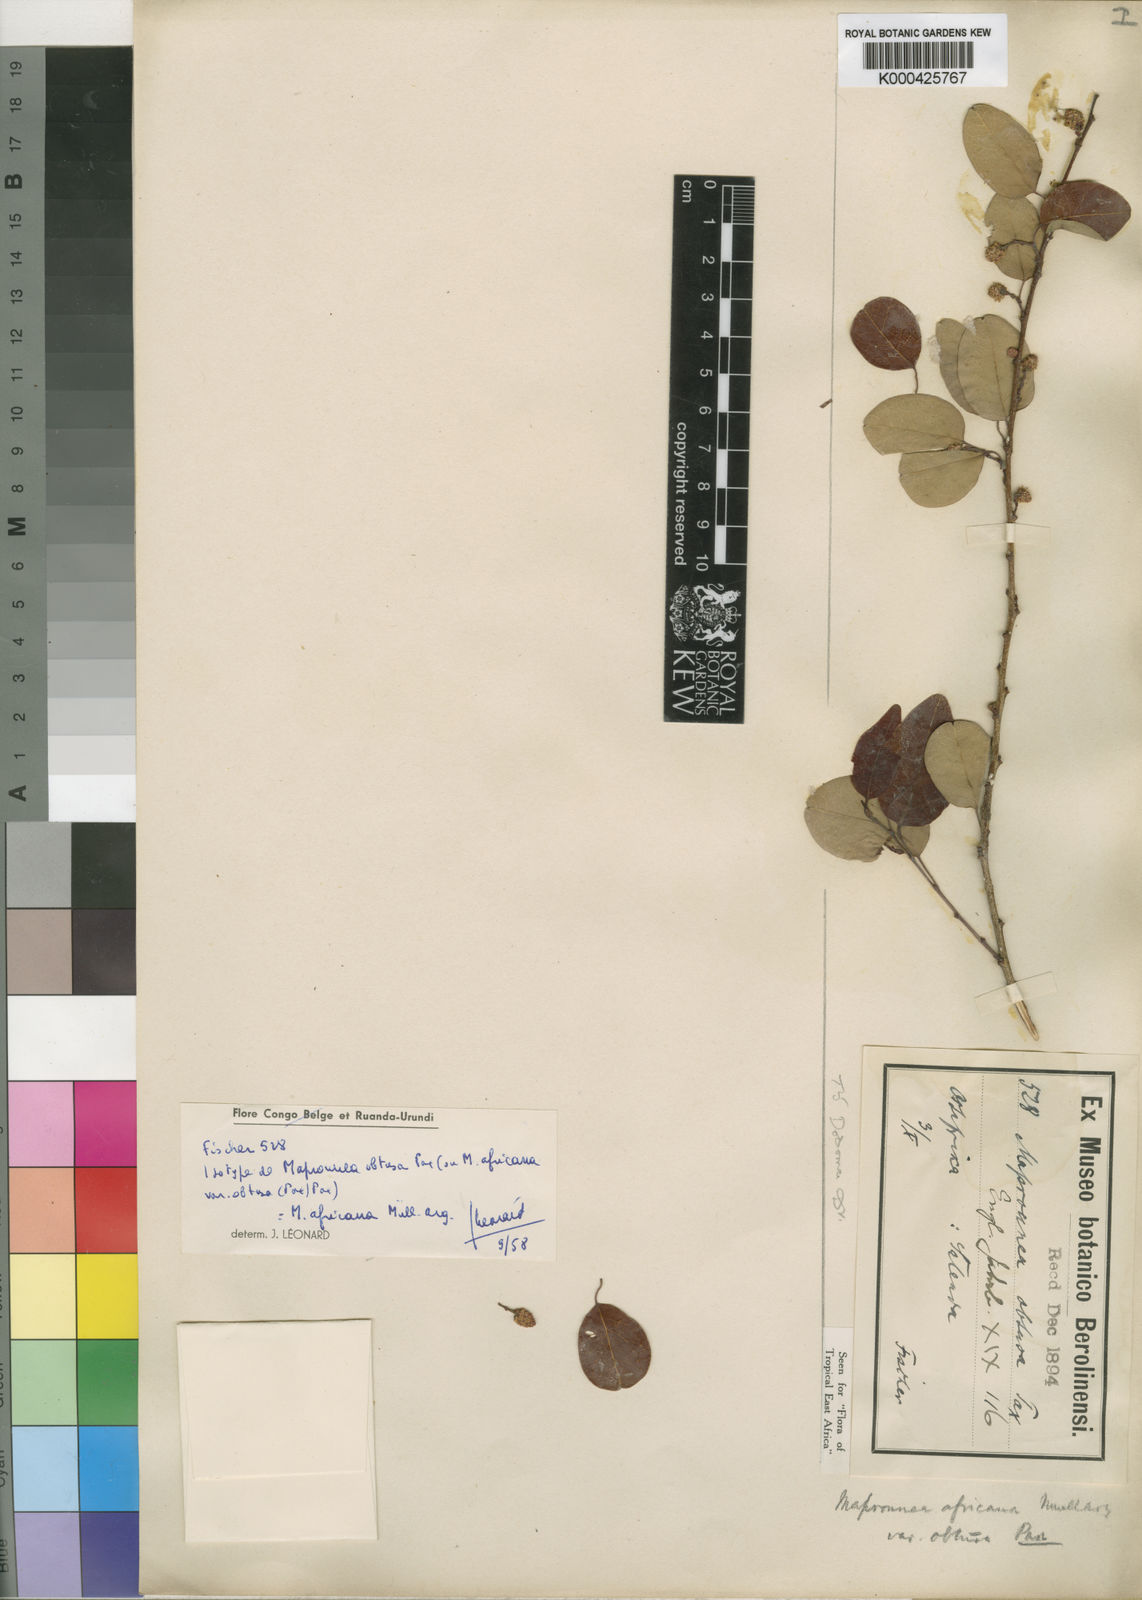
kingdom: Plantae
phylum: Tracheophyta
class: Magnoliopsida
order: Malpighiales
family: Euphorbiaceae
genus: Maprounea
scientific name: Maprounea
